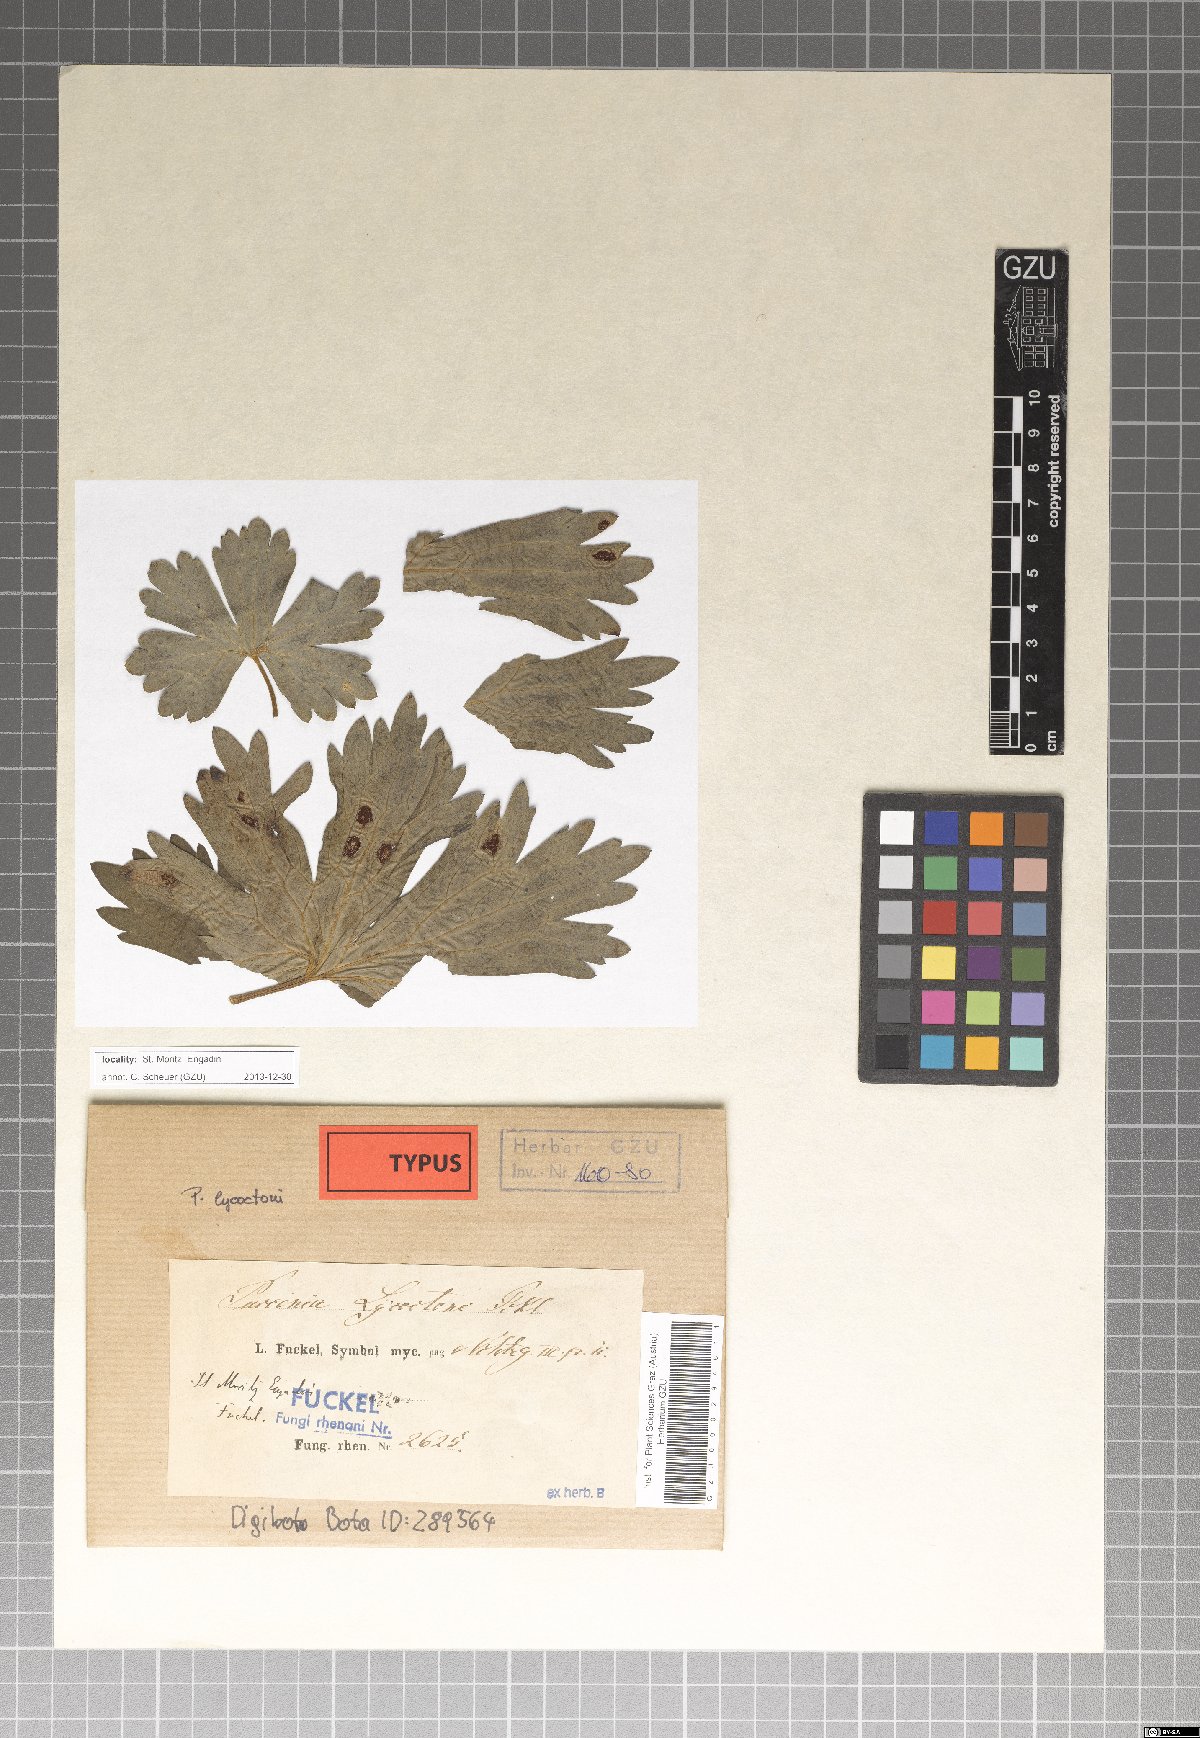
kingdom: Fungi
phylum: Basidiomycota
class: Pucciniomycetes
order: Pucciniales
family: Pucciniaceae
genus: Uromyces
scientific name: Uromyces dactylidis
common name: Celandine clustercup rust
